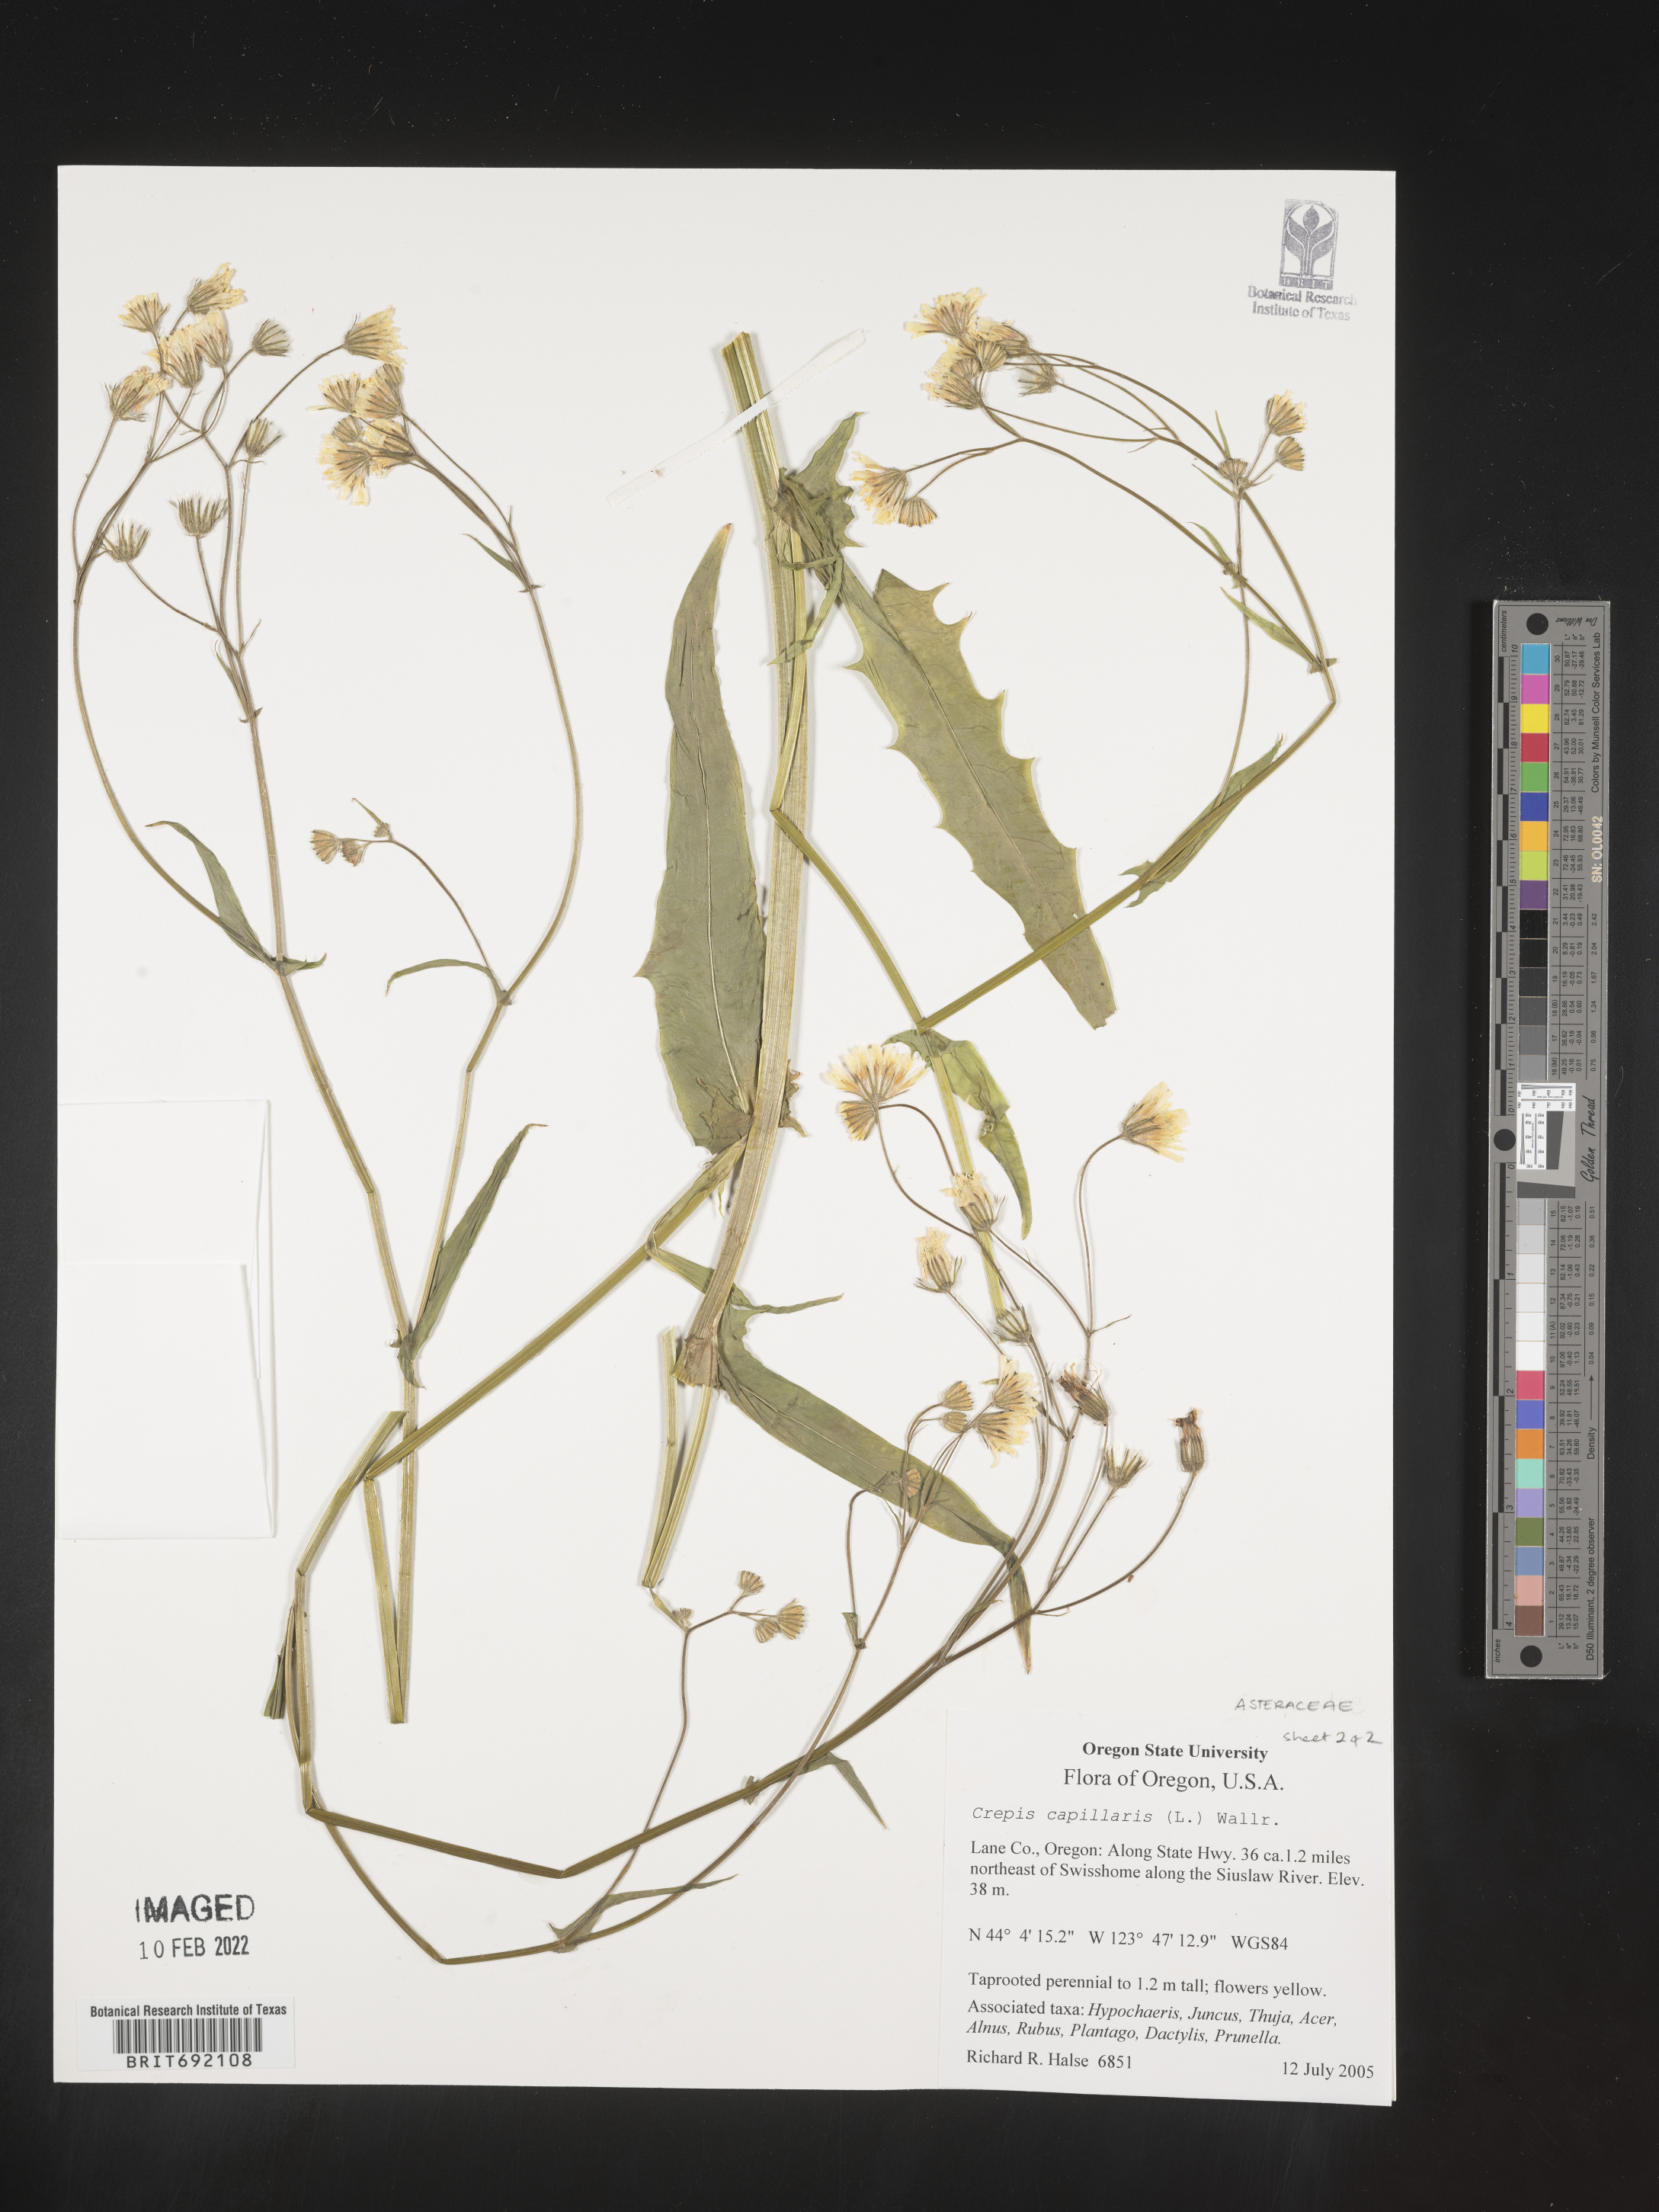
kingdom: Plantae
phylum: Tracheophyta
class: Magnoliopsida
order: Asterales
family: Asteraceae
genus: Crepis
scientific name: Crepis
